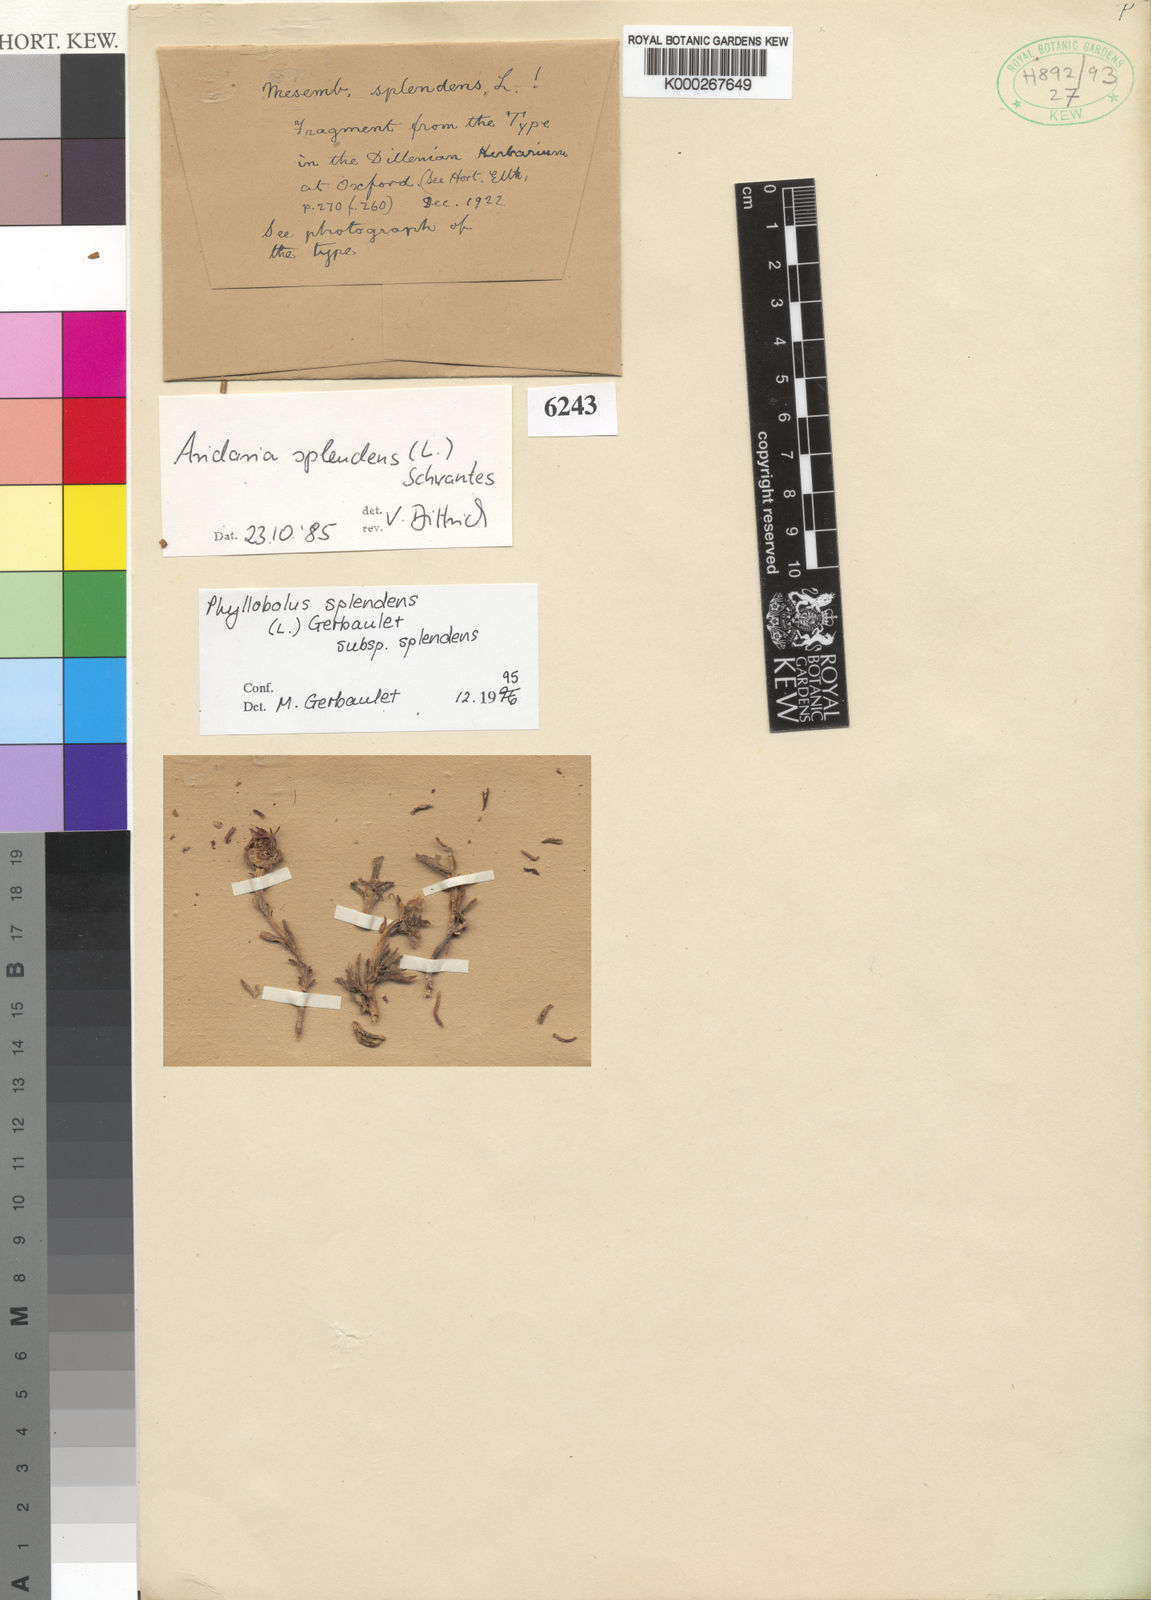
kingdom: Plantae
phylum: Tracheophyta
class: Magnoliopsida
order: Caryophyllales
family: Aizoaceae
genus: Mesembryanthemum
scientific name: Mesembryanthemum splendens
